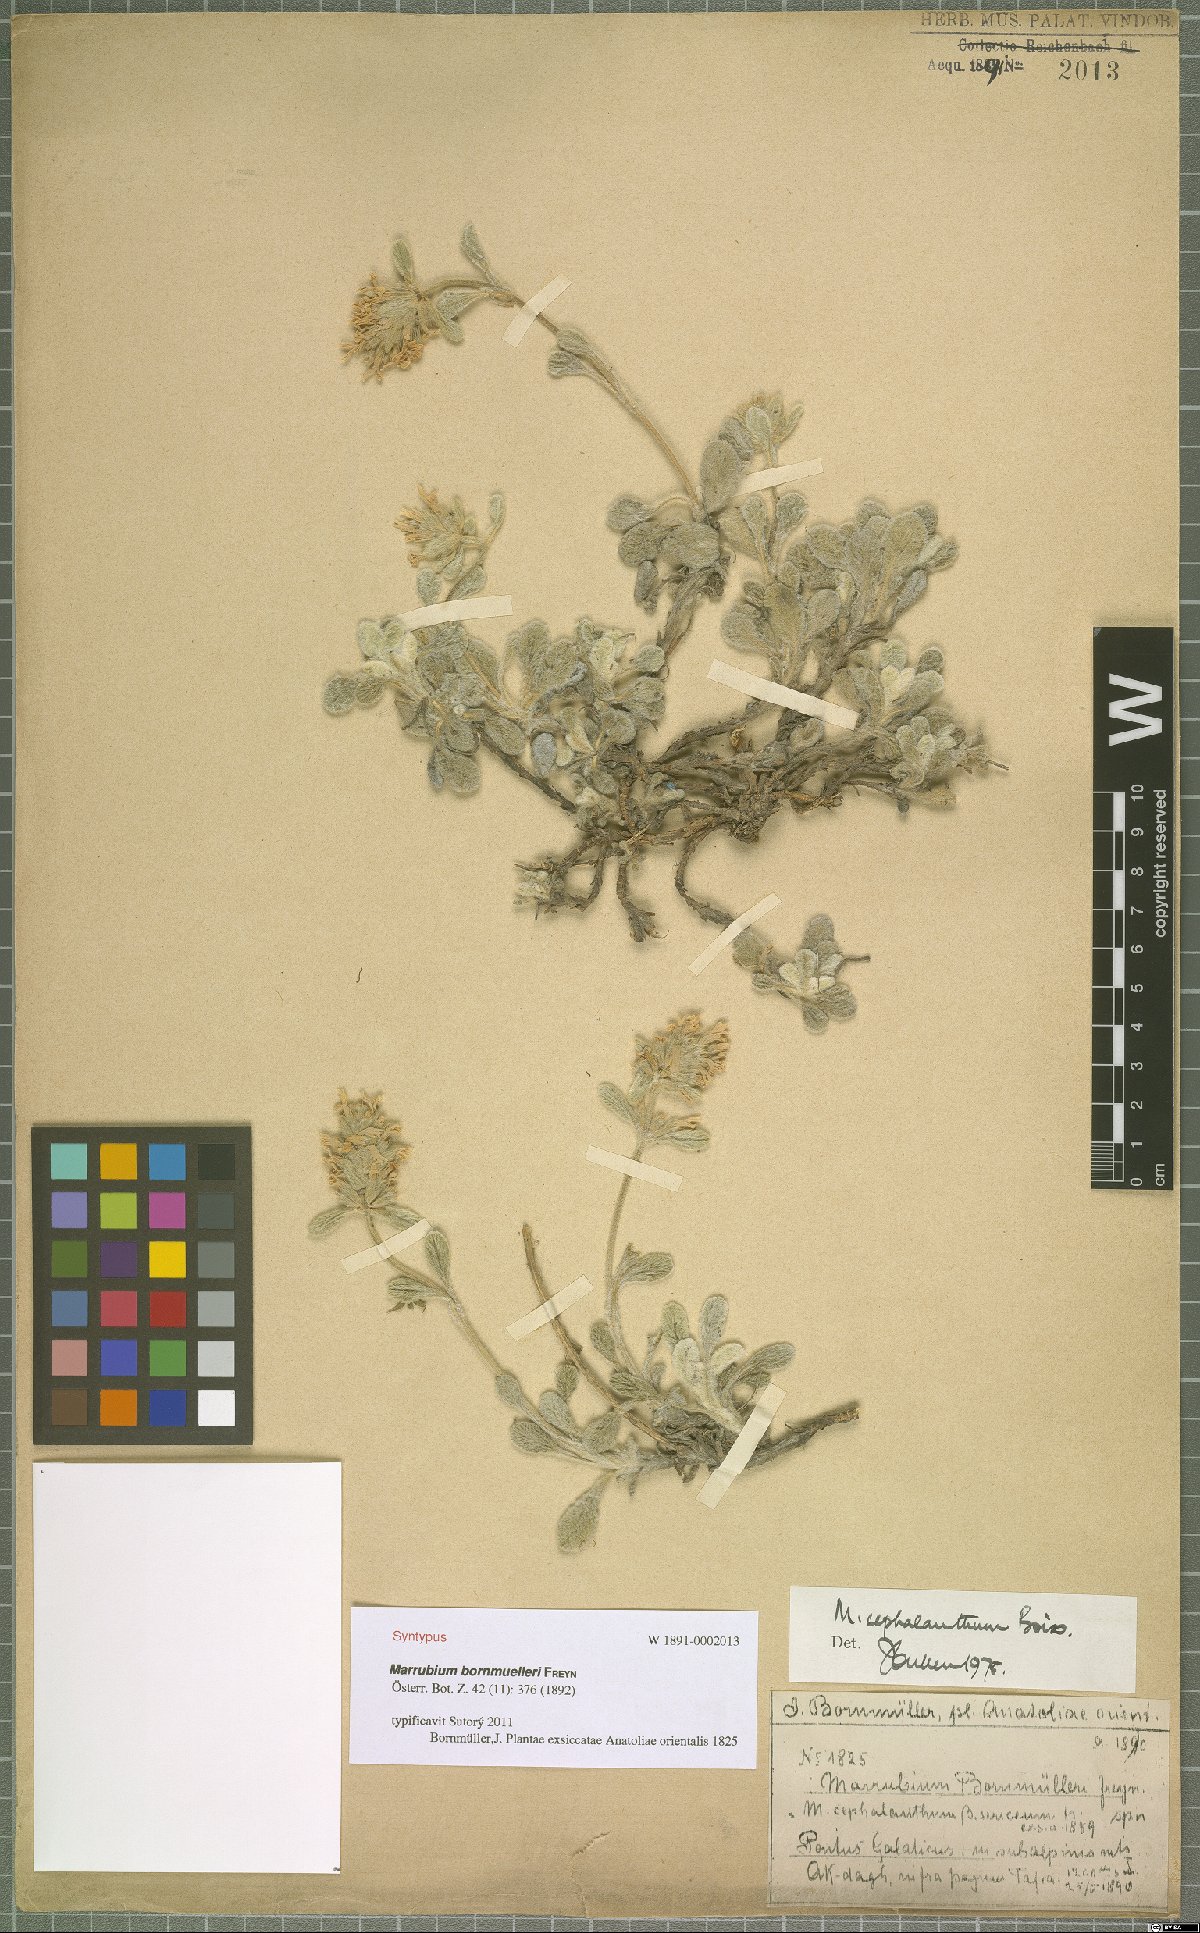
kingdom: Plantae
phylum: Tracheophyta
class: Magnoliopsida
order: Lamiales
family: Lamiaceae
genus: Marrubium
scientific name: Marrubium cephalanthum
